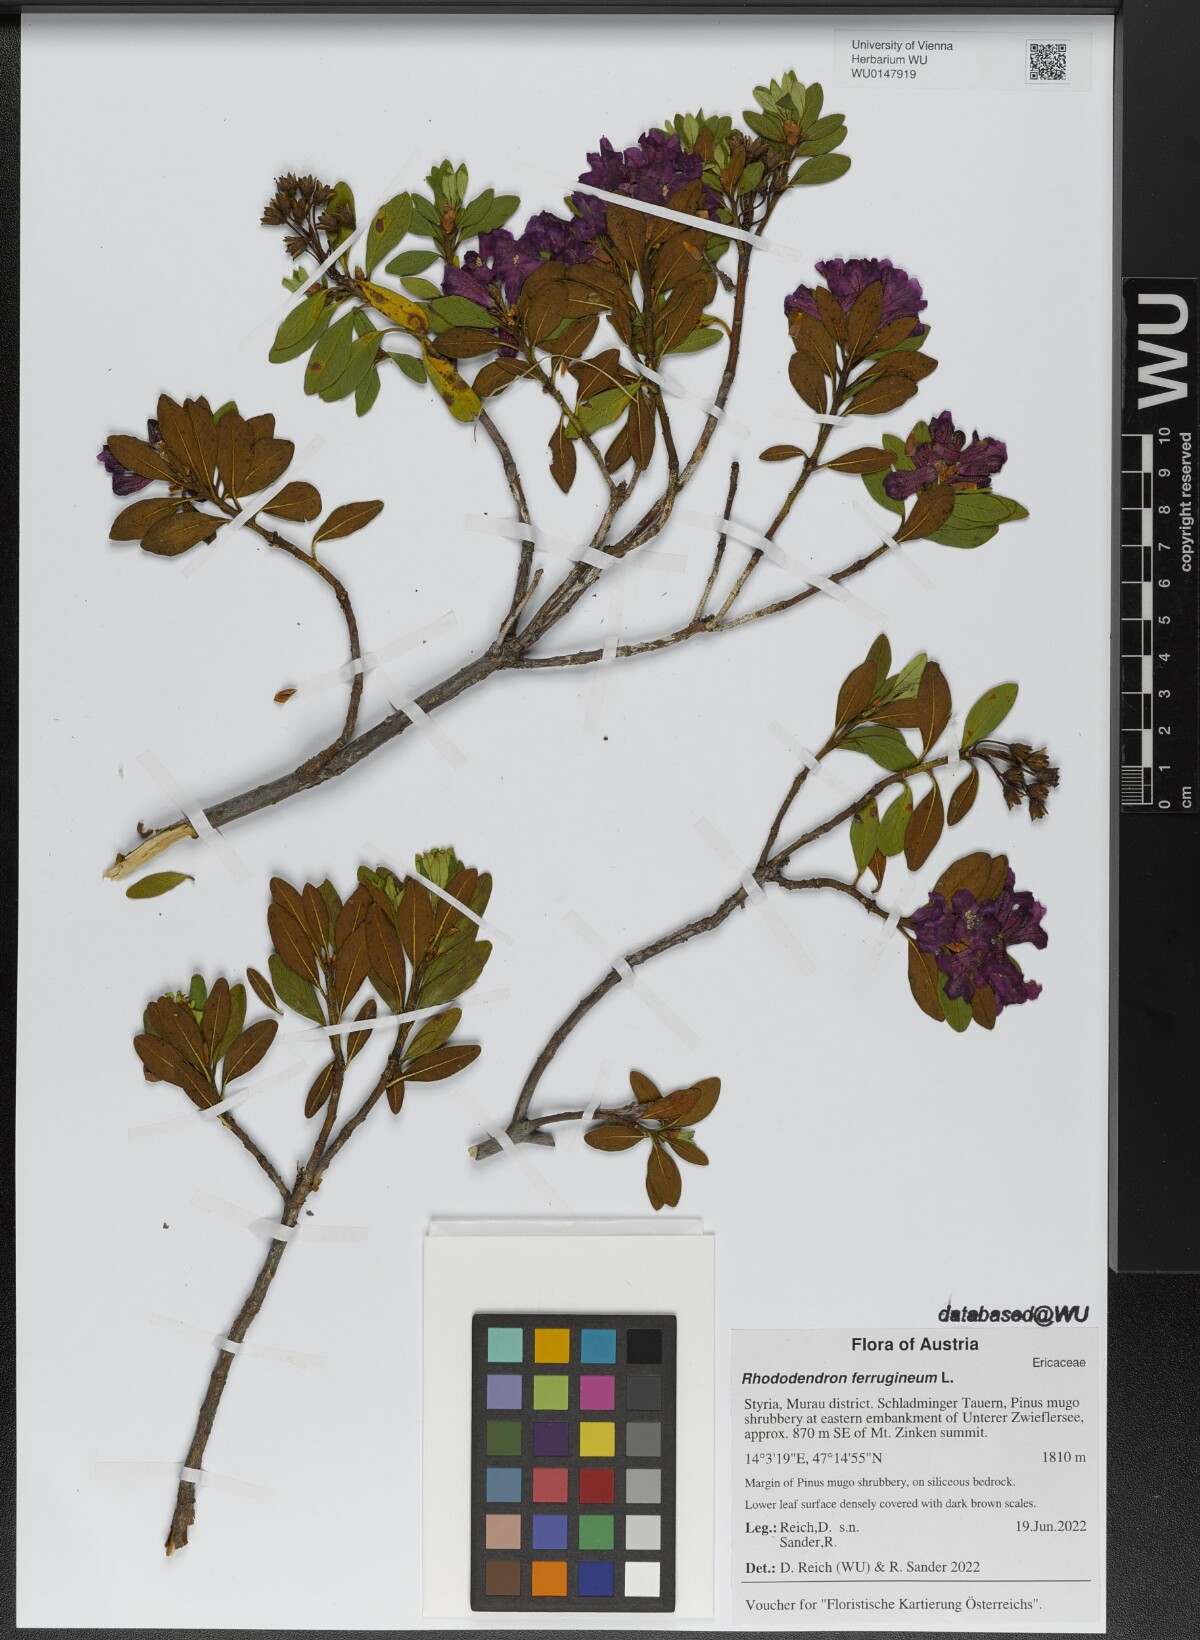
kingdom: Plantae
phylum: Tracheophyta
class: Magnoliopsida
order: Ericales
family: Ericaceae
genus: Rhododendron
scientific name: Rhododendron ferrugineum
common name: Alpenrose
